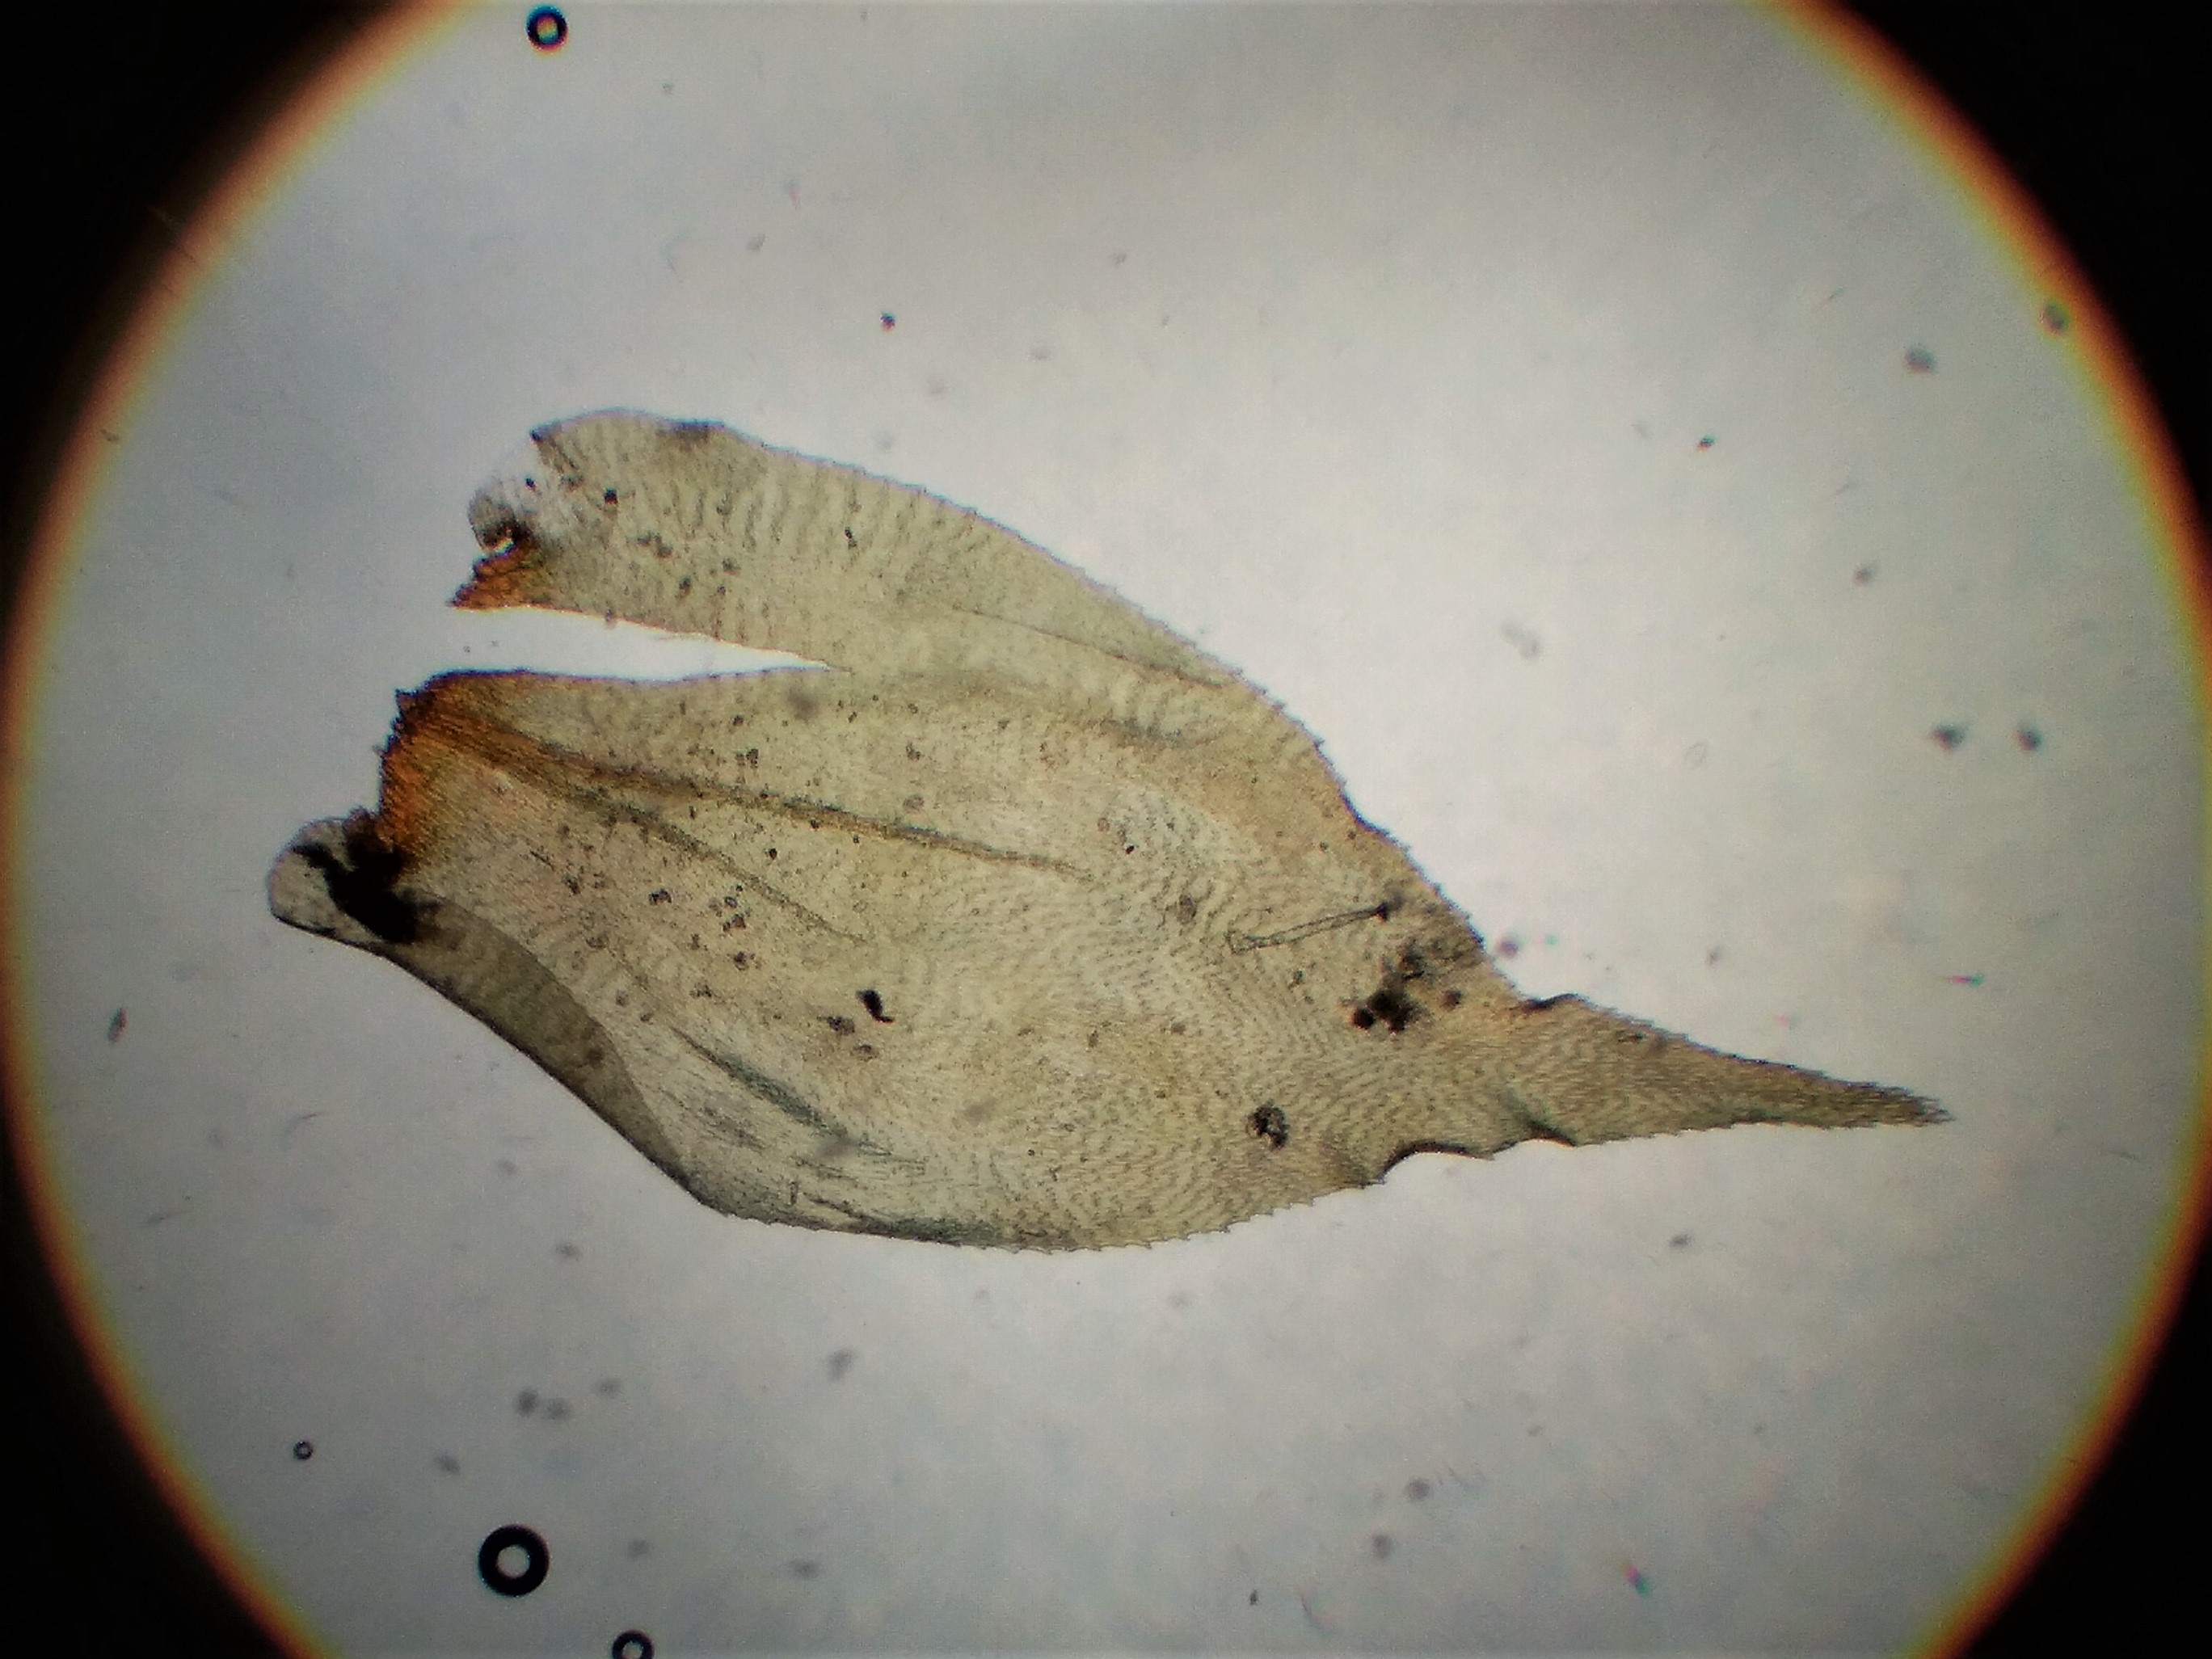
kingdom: Plantae
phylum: Bryophyta
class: Bryopsida
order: Hypnales
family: Hylocomiaceae
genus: Loeskeobryum
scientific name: Loeskeobryum brevirostre
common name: Åben etagemos
